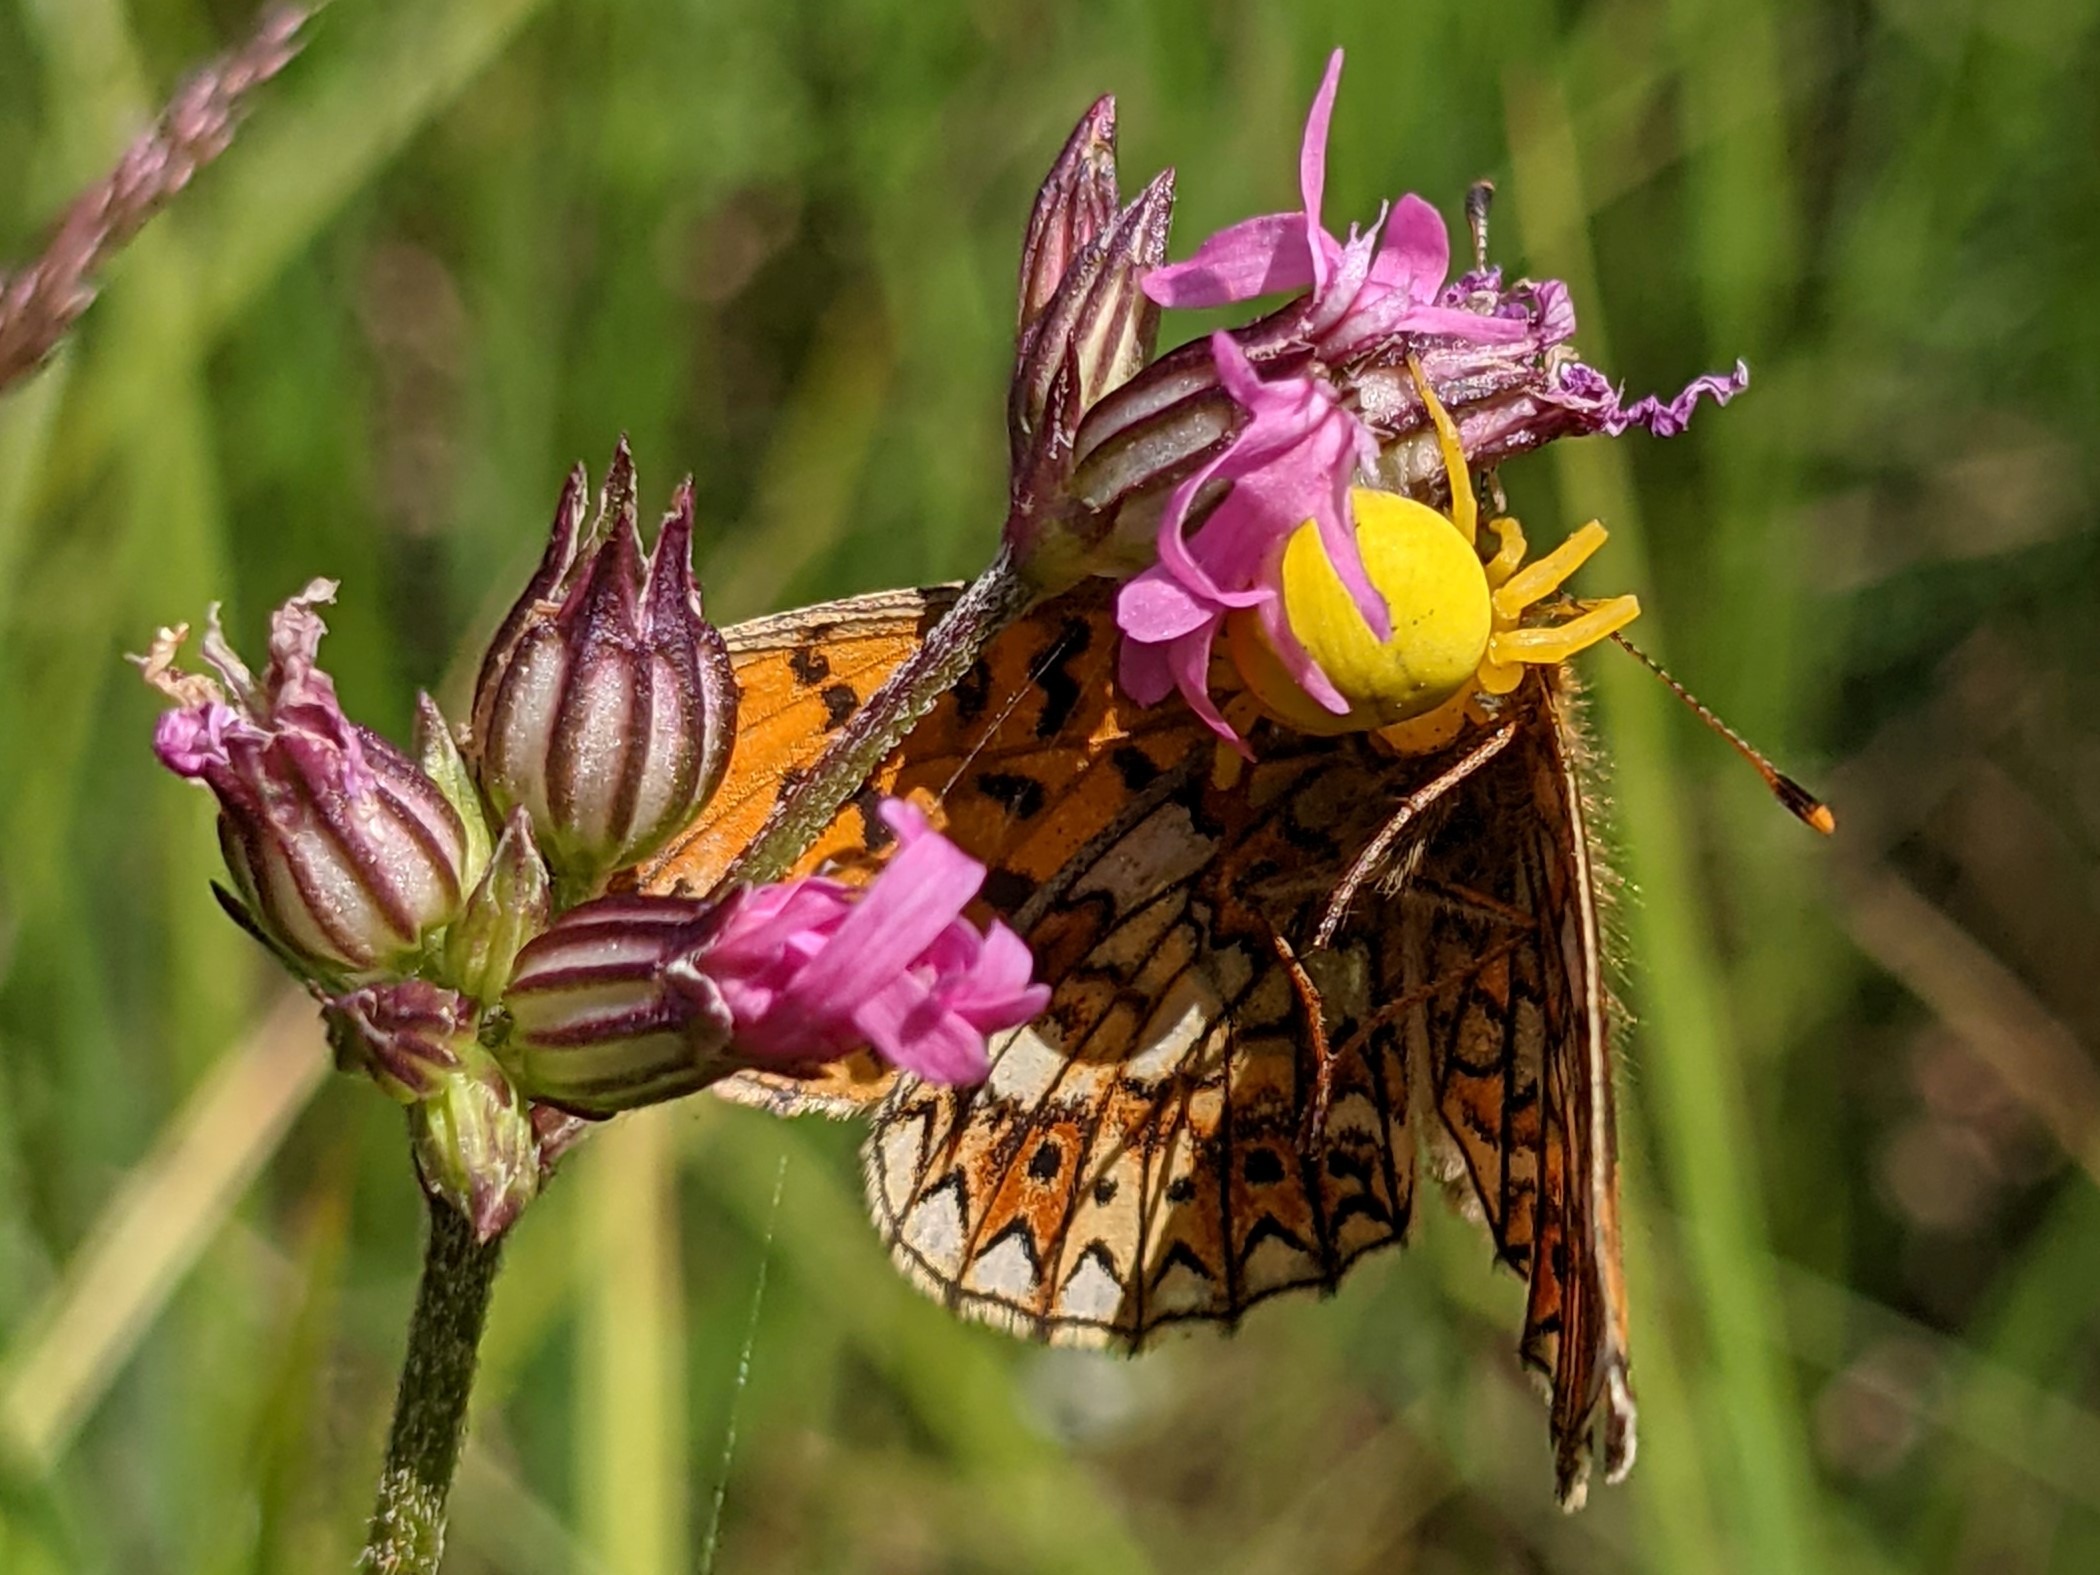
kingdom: Animalia
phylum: Arthropoda
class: Arachnida
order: Araneae
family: Thomisidae
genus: Misumena
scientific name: Misumena vatia
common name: Kamæleonedderkop
